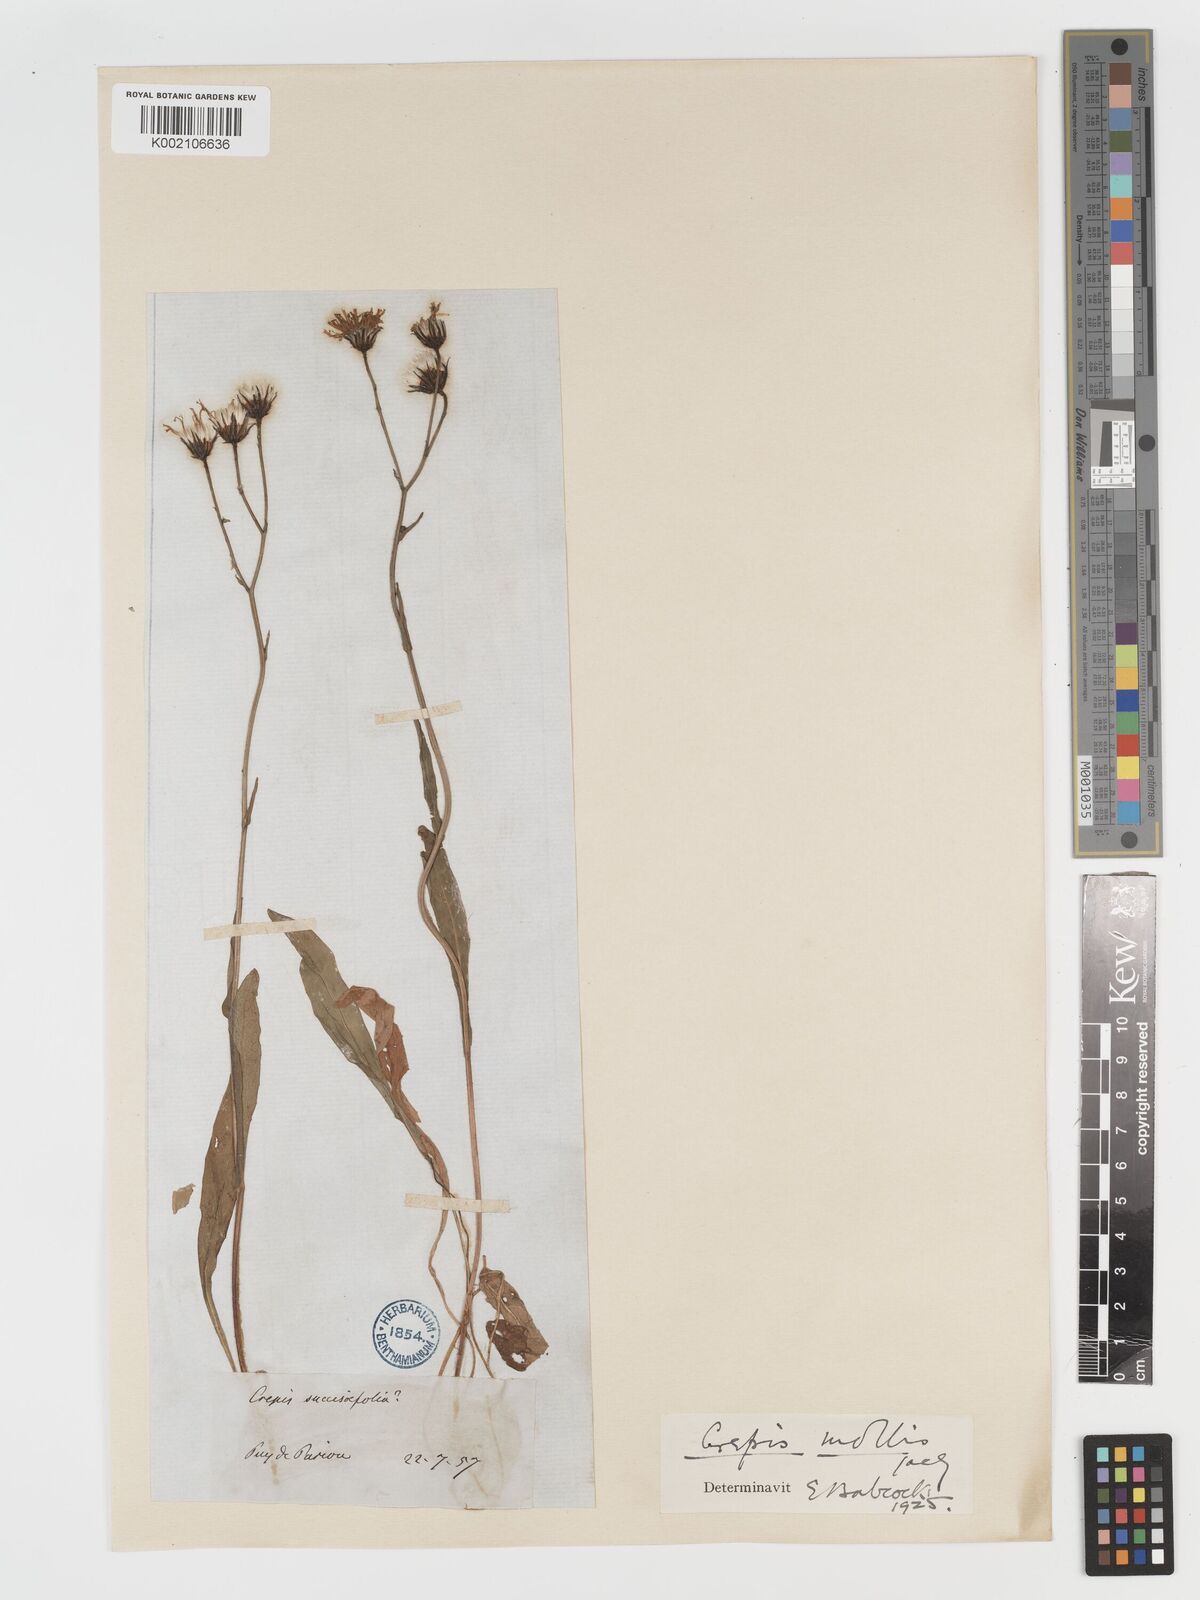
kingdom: Plantae
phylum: Tracheophyta
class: Magnoliopsida
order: Asterales
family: Asteraceae
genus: Crepis
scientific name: Crepis mollis
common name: Northern hawk's-beard
